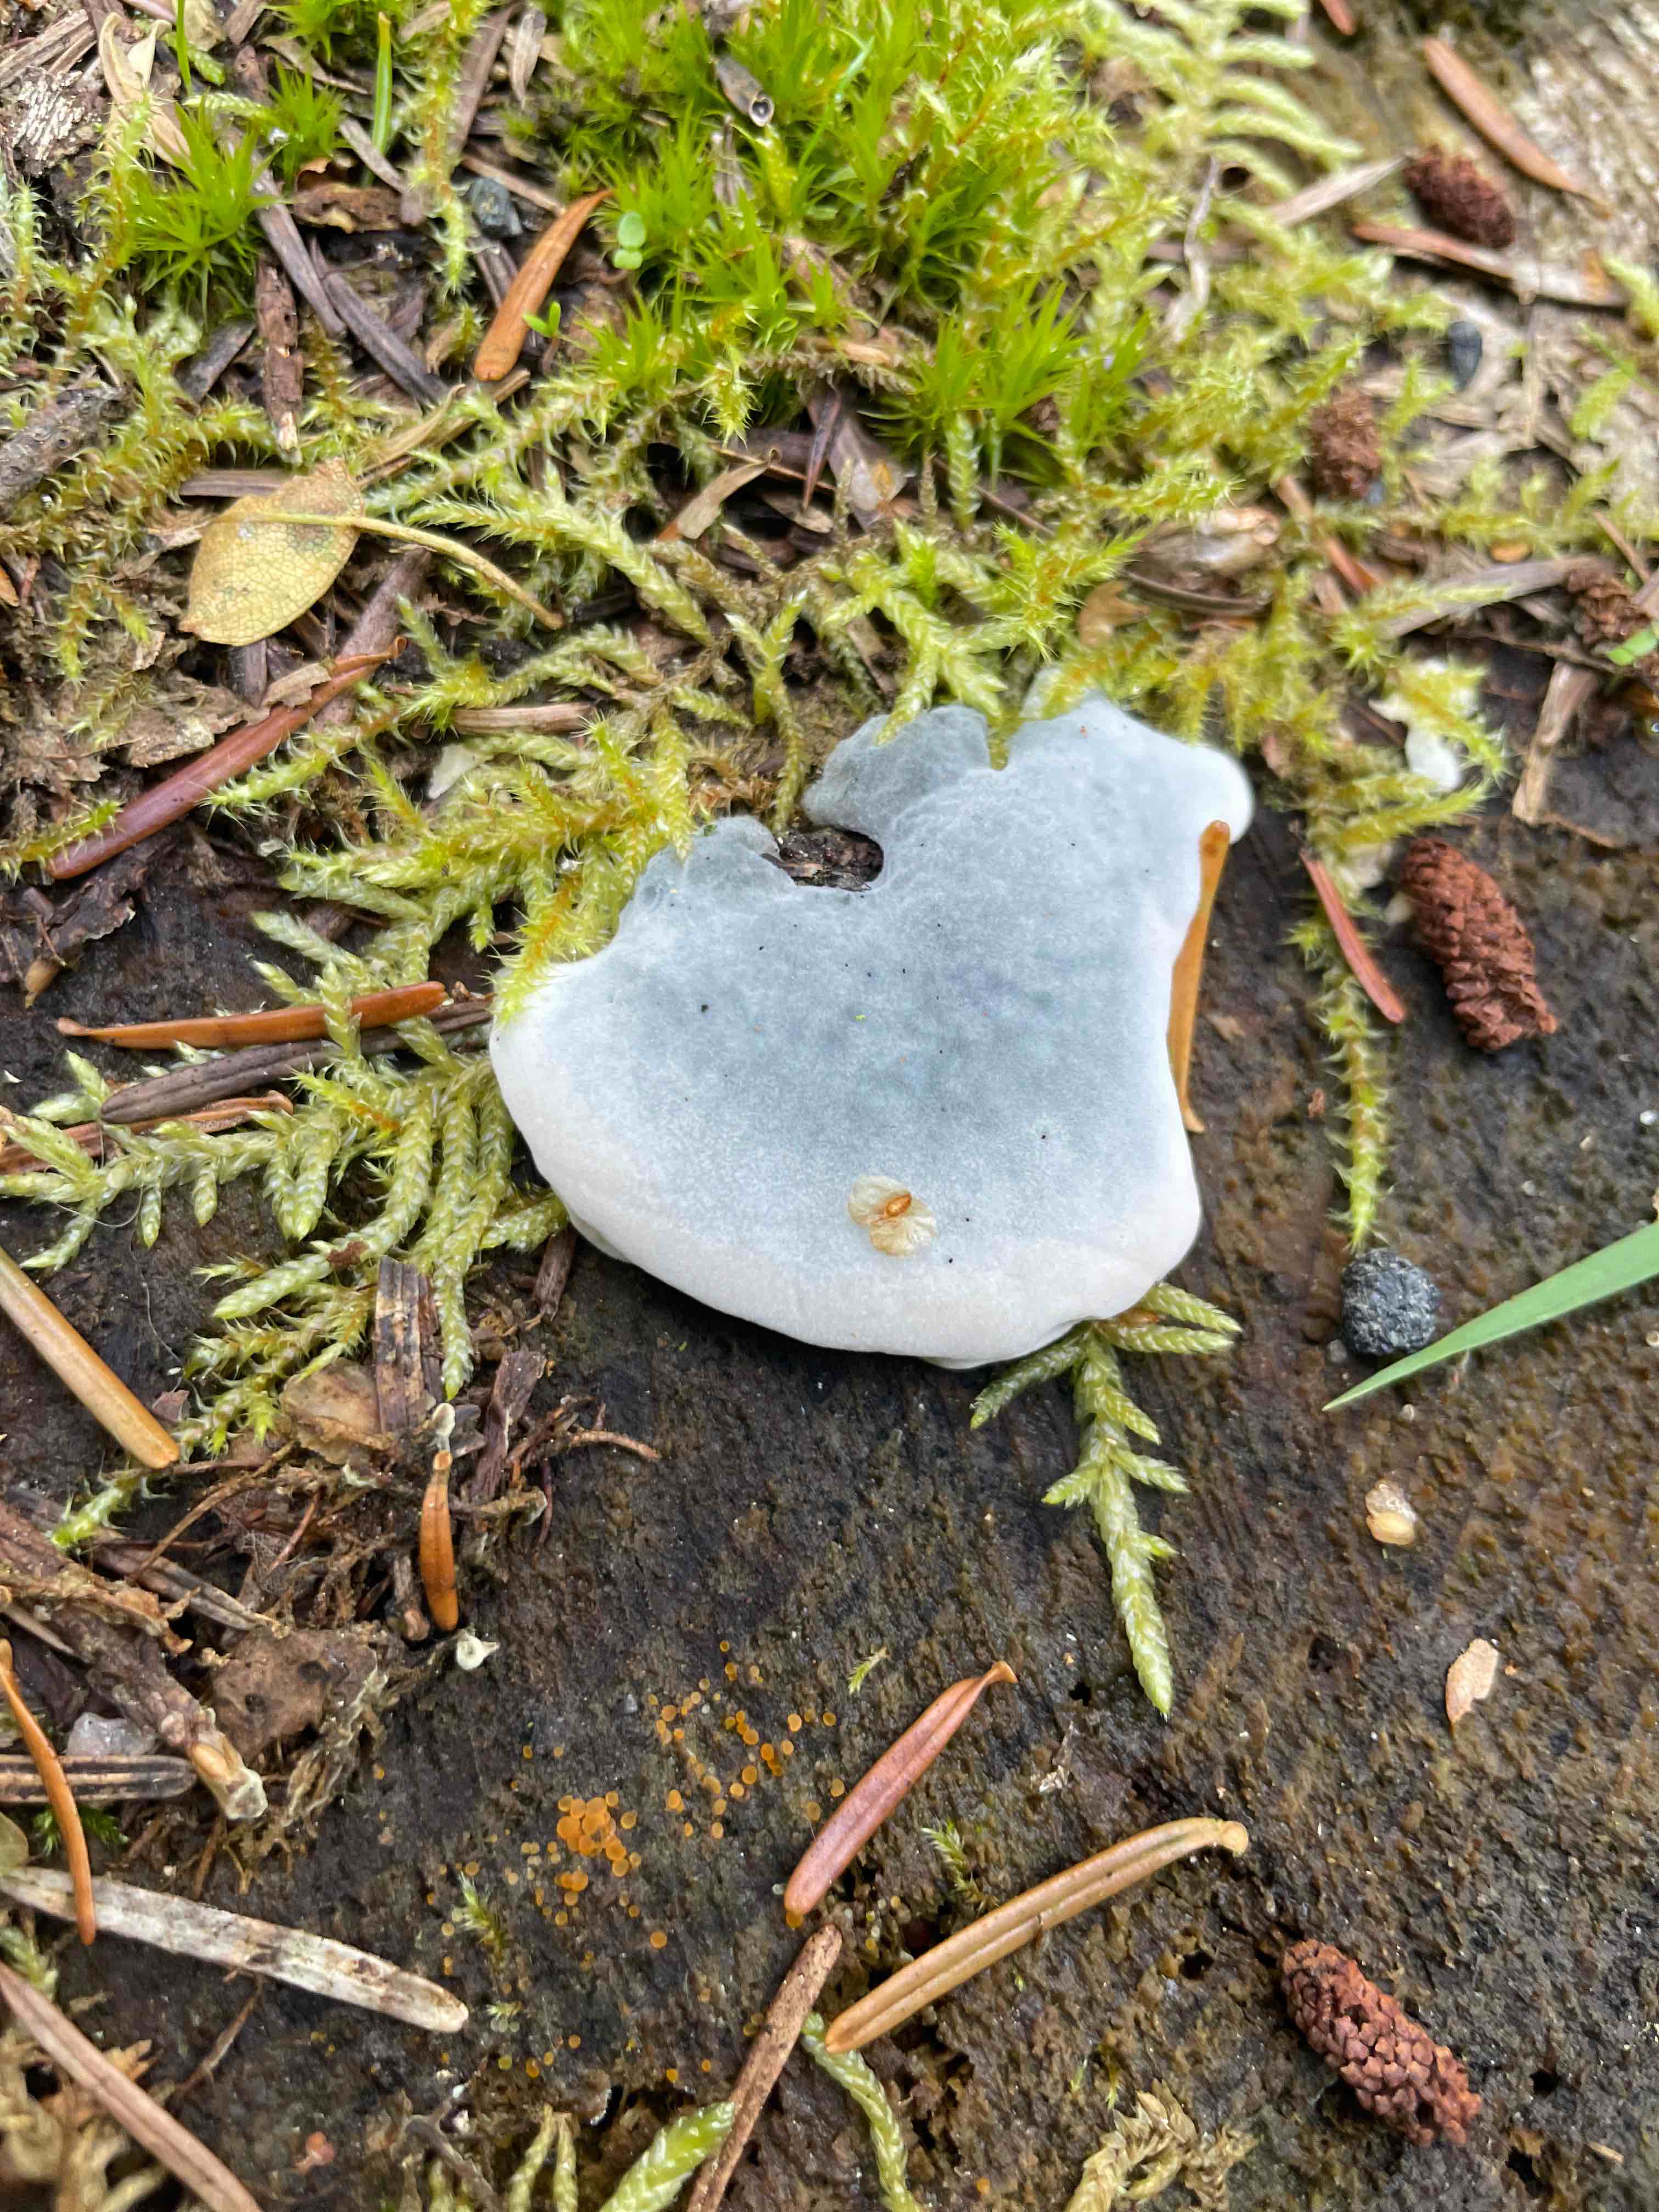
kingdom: Fungi
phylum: Basidiomycota
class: Agaricomycetes
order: Polyporales
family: Polyporaceae
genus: Cyanosporus
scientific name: Cyanosporus caesius
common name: blålig kødporesvamp
